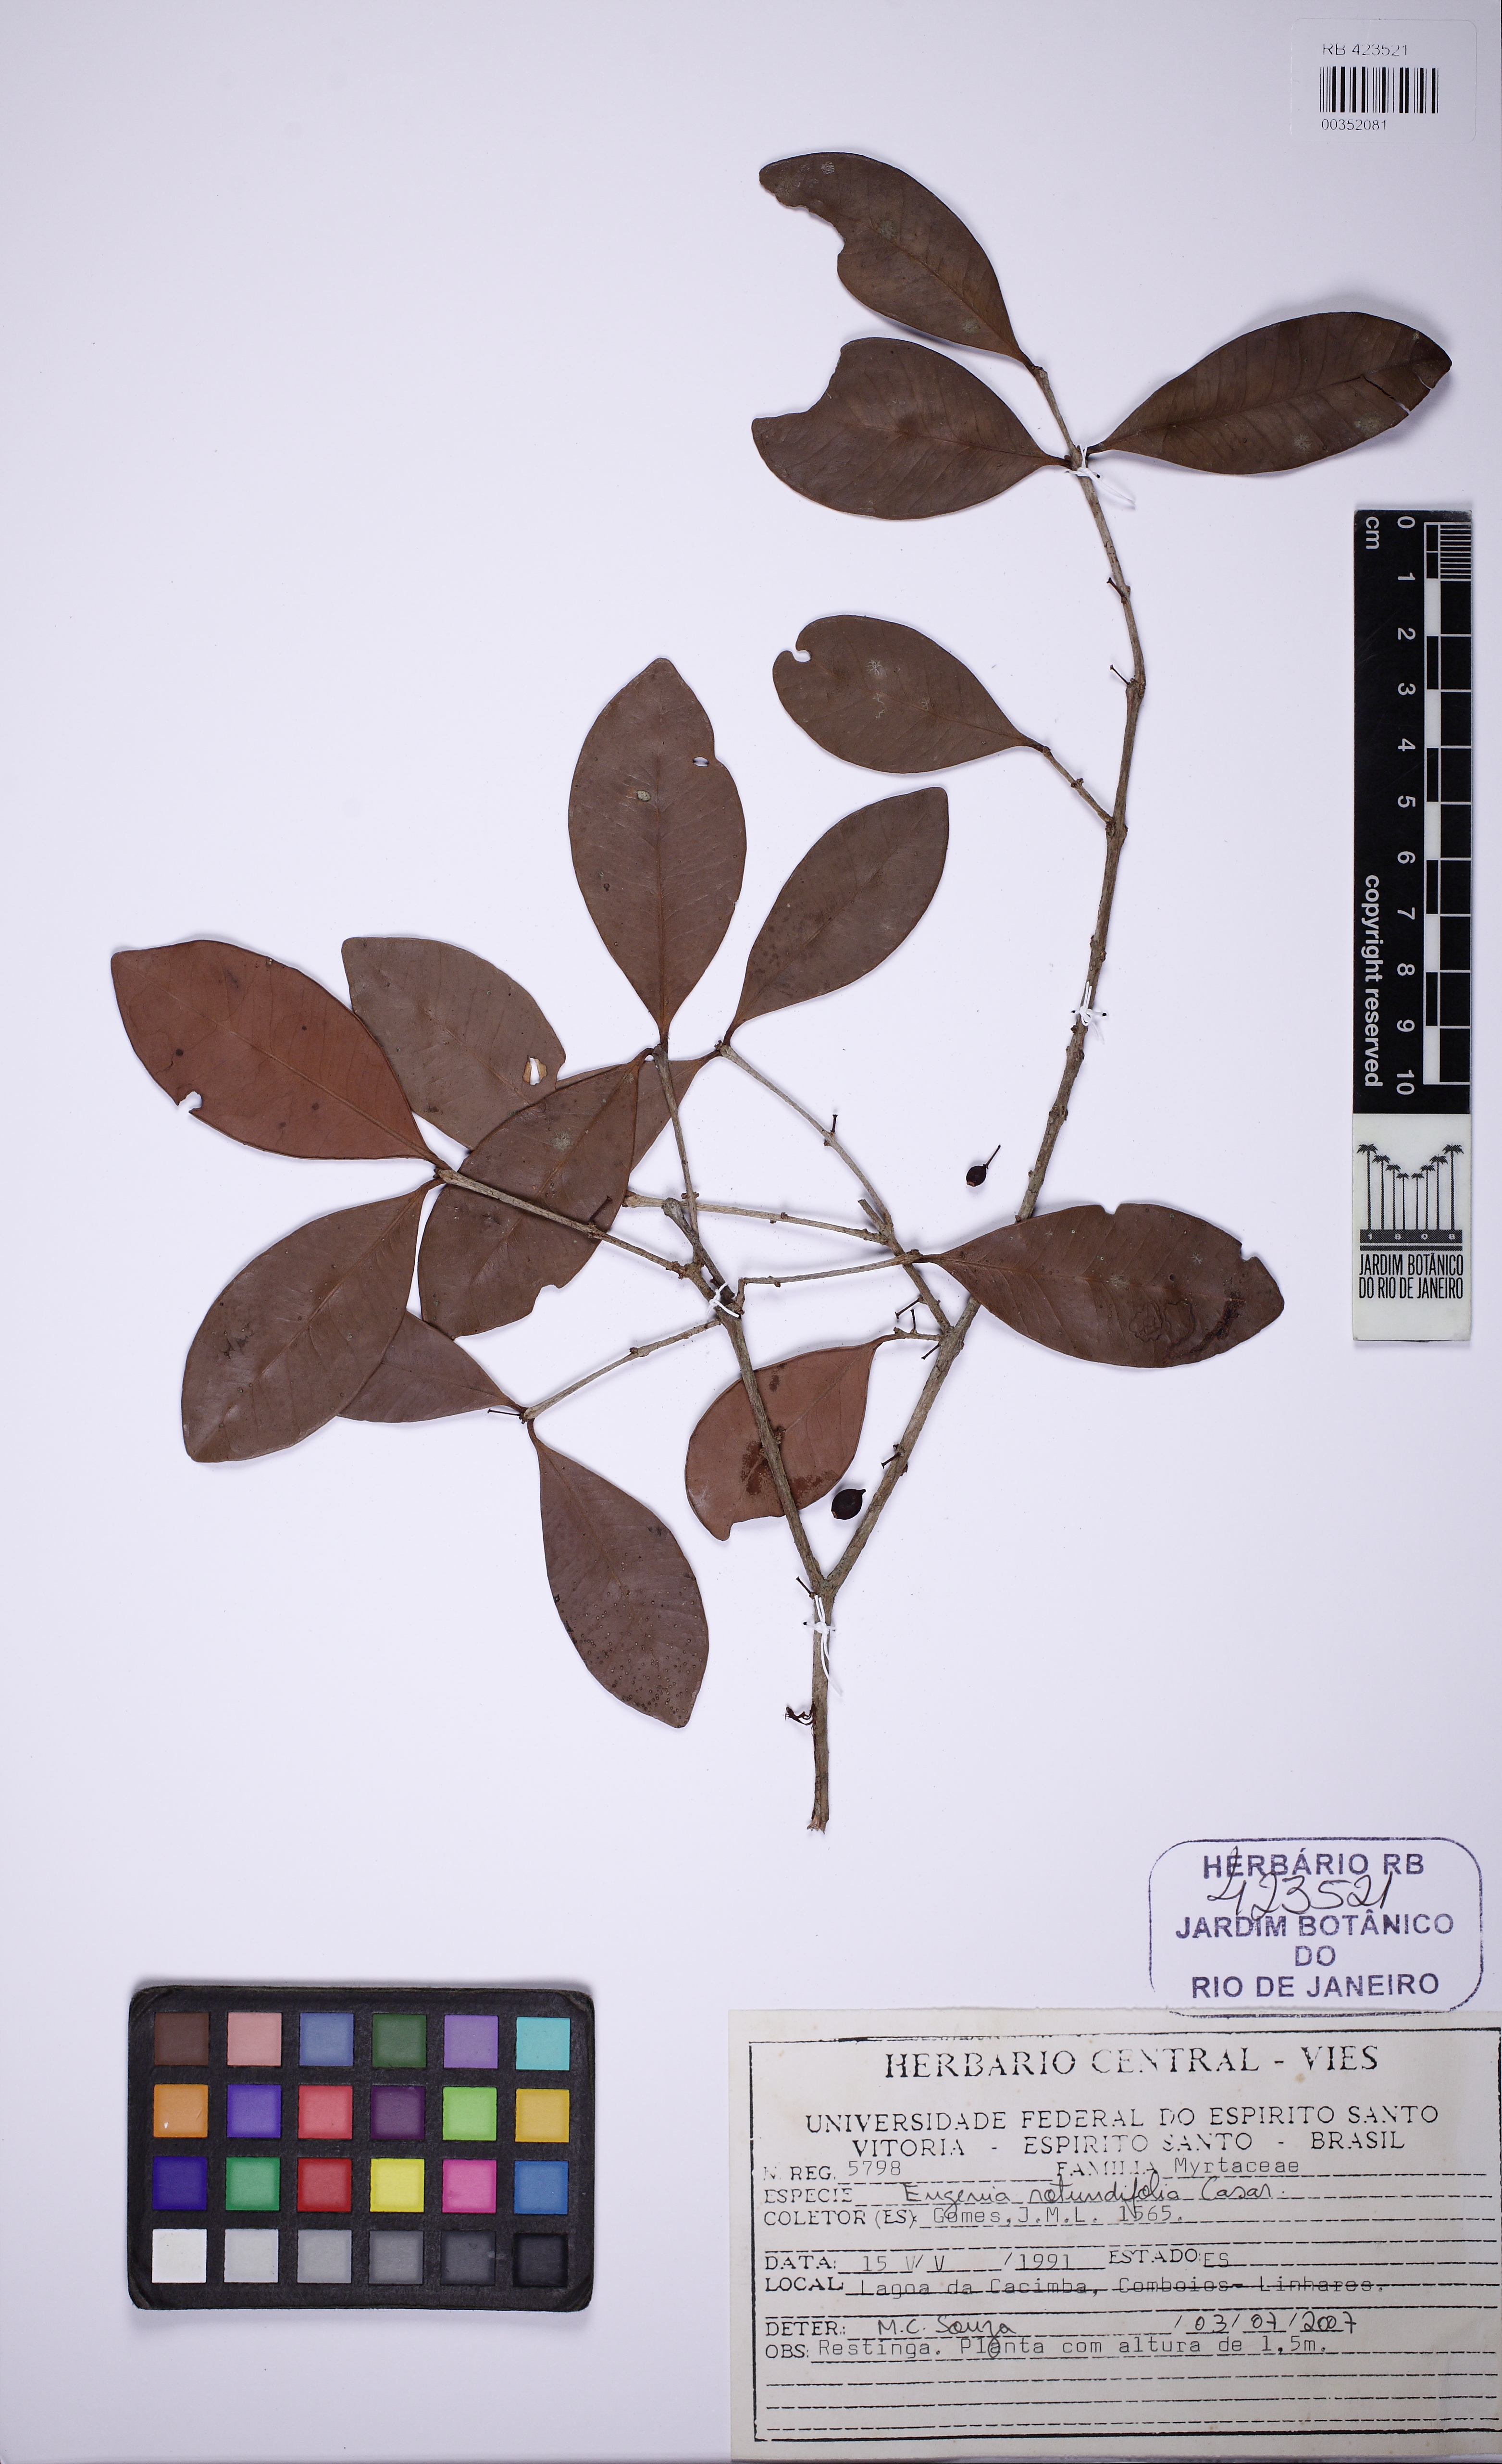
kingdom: Plantae
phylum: Tracheophyta
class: Magnoliopsida
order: Myrtales
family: Myrtaceae
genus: Eugenia
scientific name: Eugenia rostrifolia
